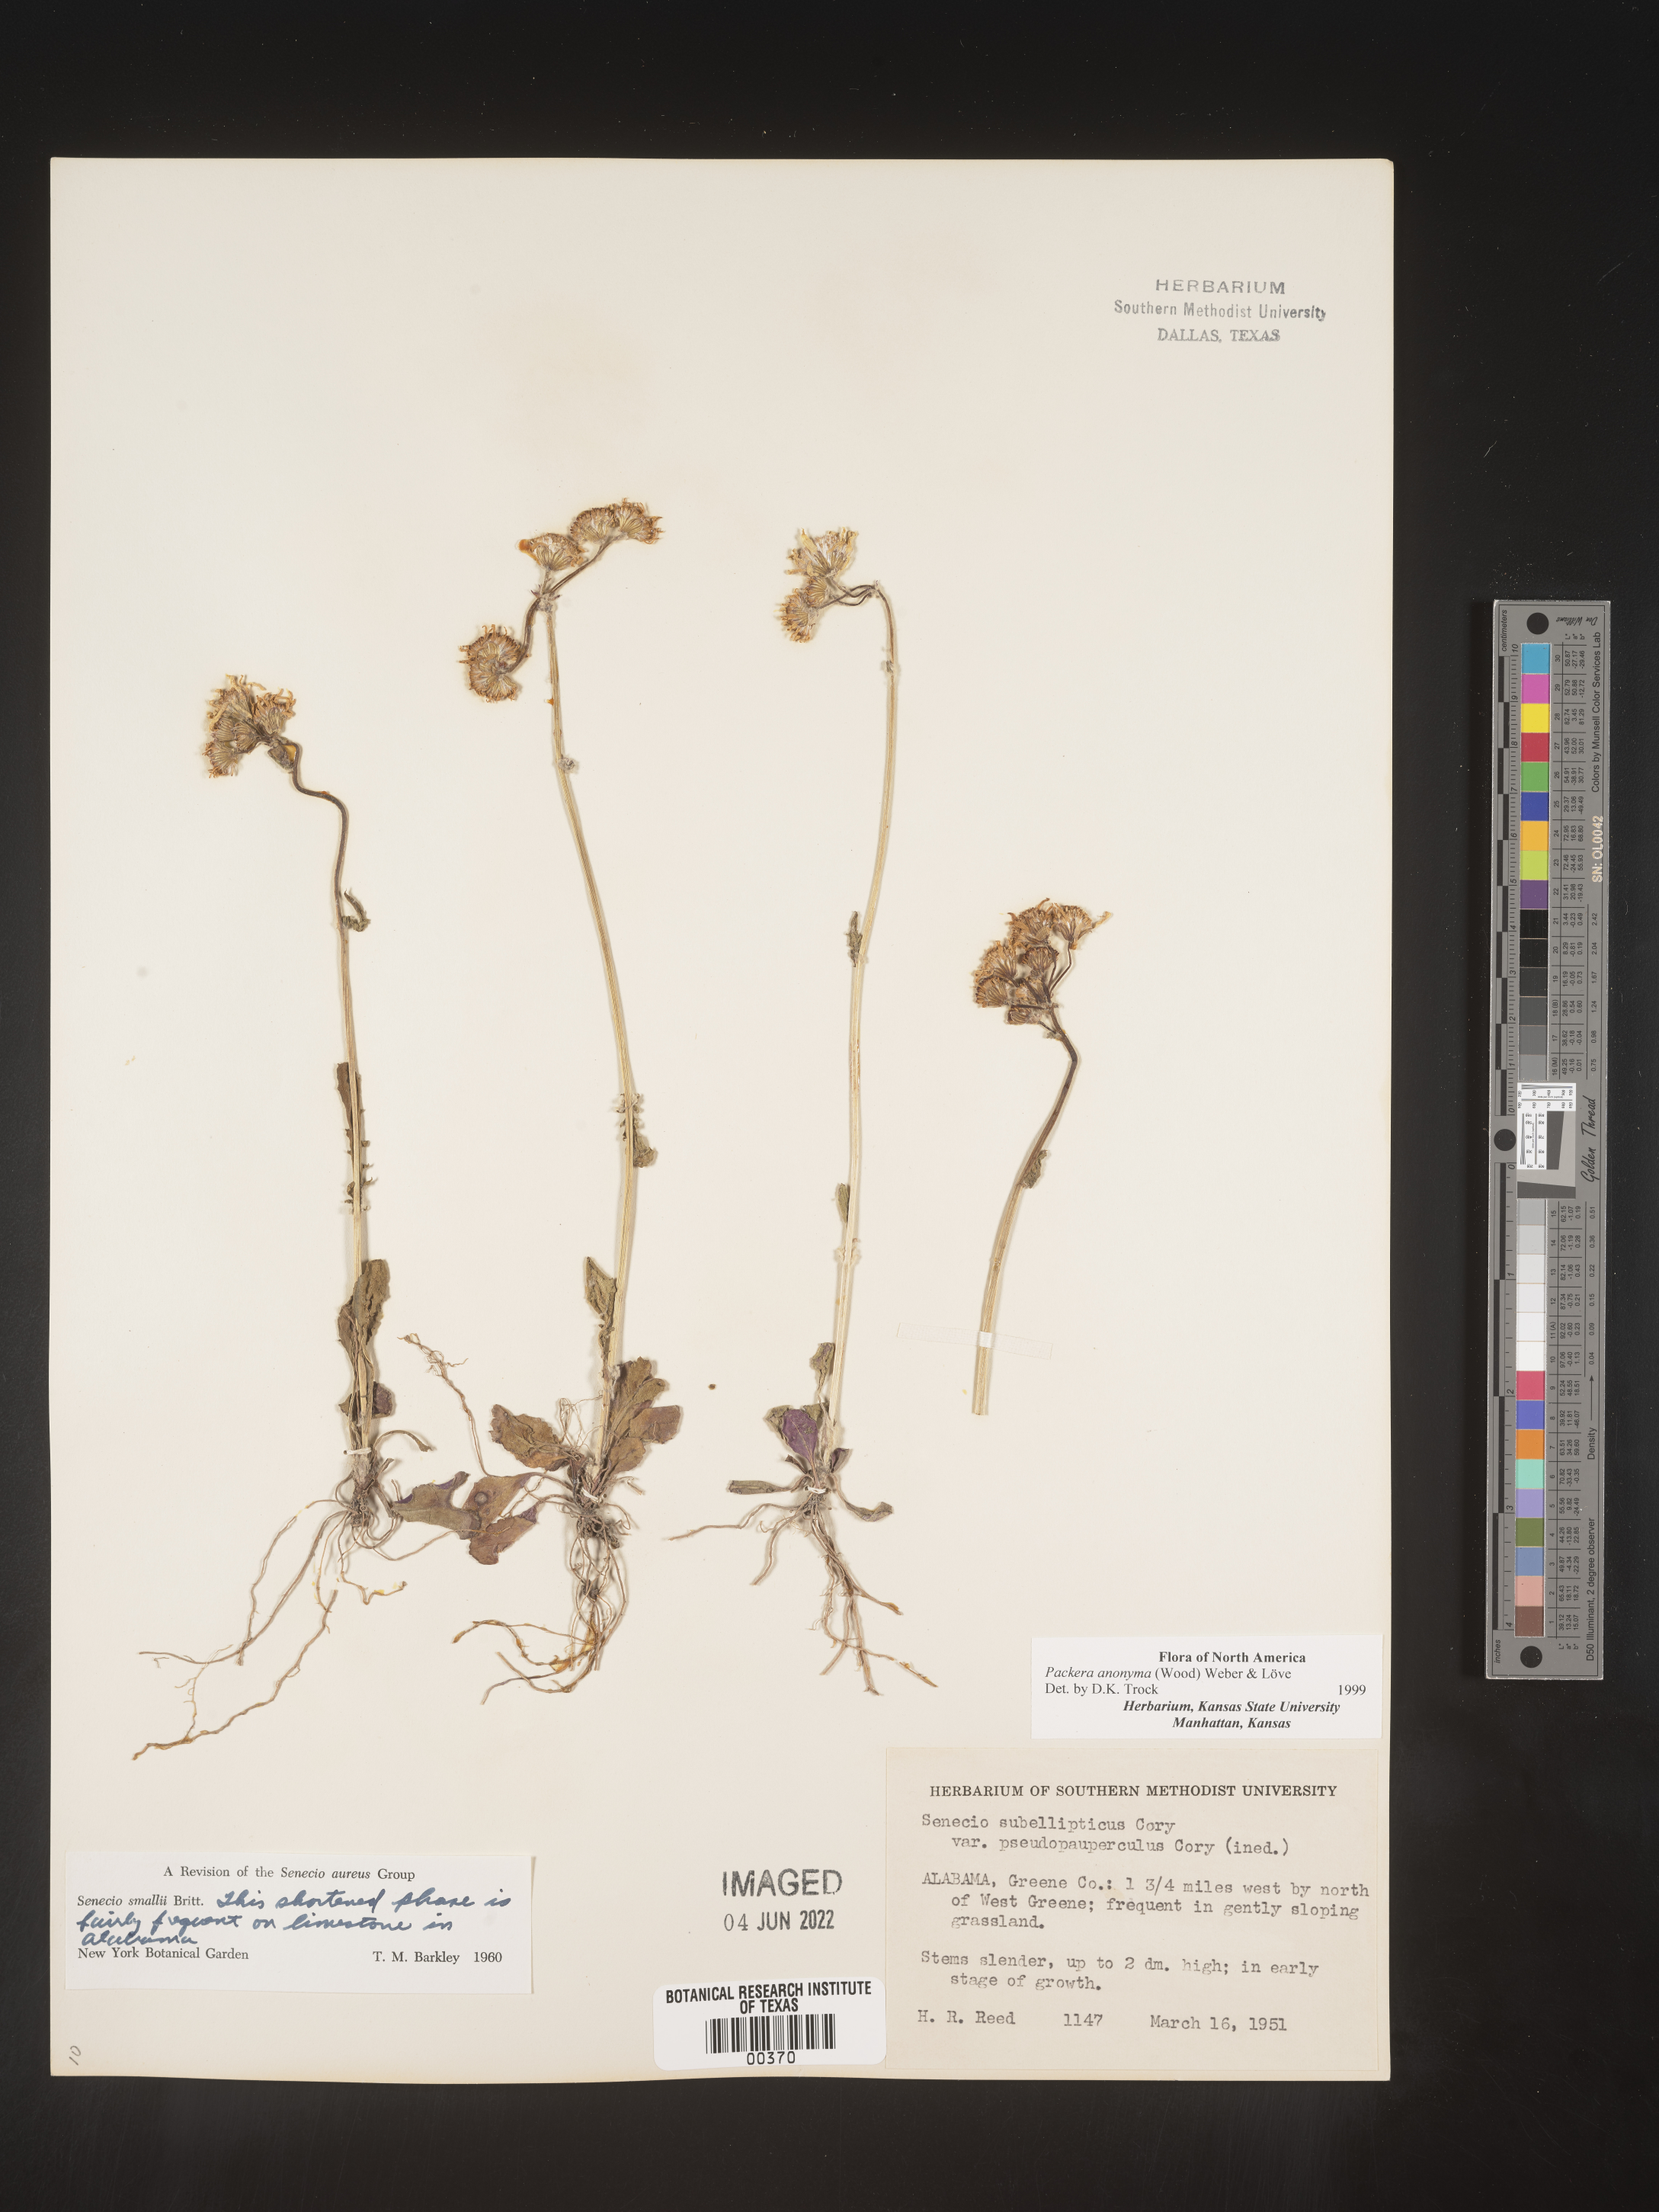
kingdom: Plantae
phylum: Tracheophyta
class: Magnoliopsida
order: Asterales
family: Asteraceae
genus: Packera
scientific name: Packera anonyma
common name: Small ragwort
